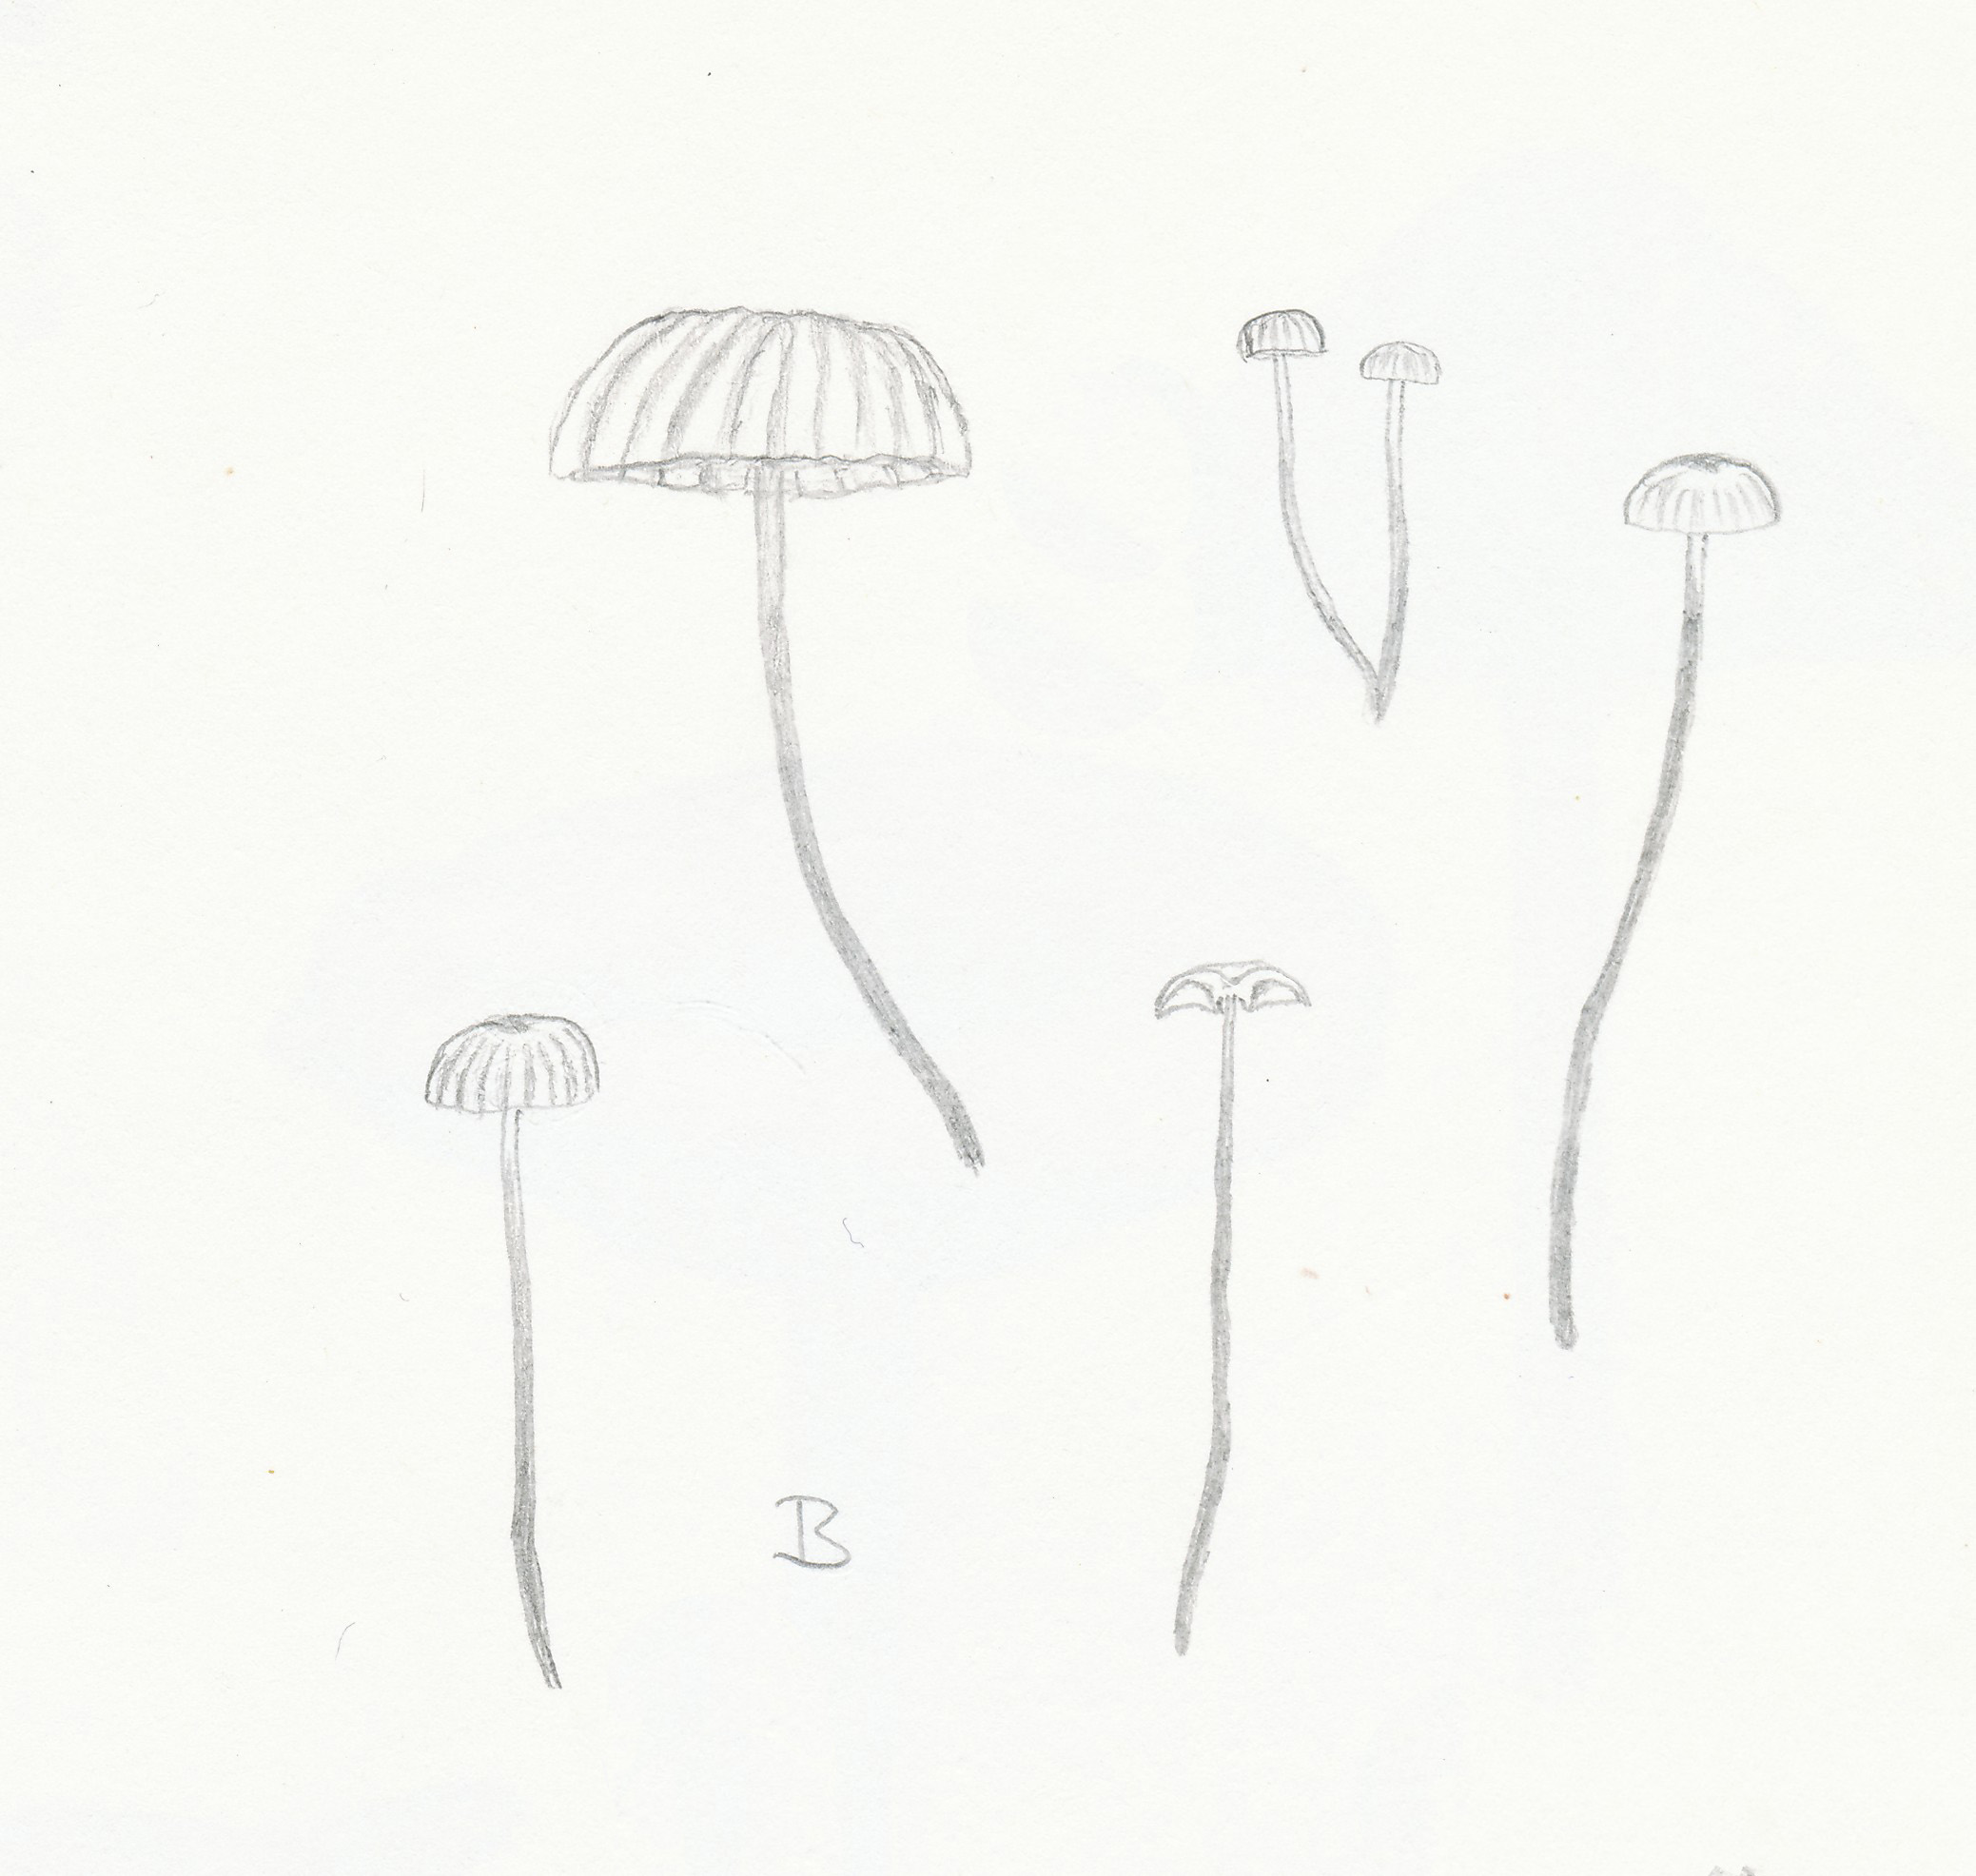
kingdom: Fungi
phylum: Basidiomycota
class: Agaricomycetes
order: Agaricales
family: Marasmiaceae
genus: Marasmius
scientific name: Marasmius rotula
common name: hjul-bruskhat
